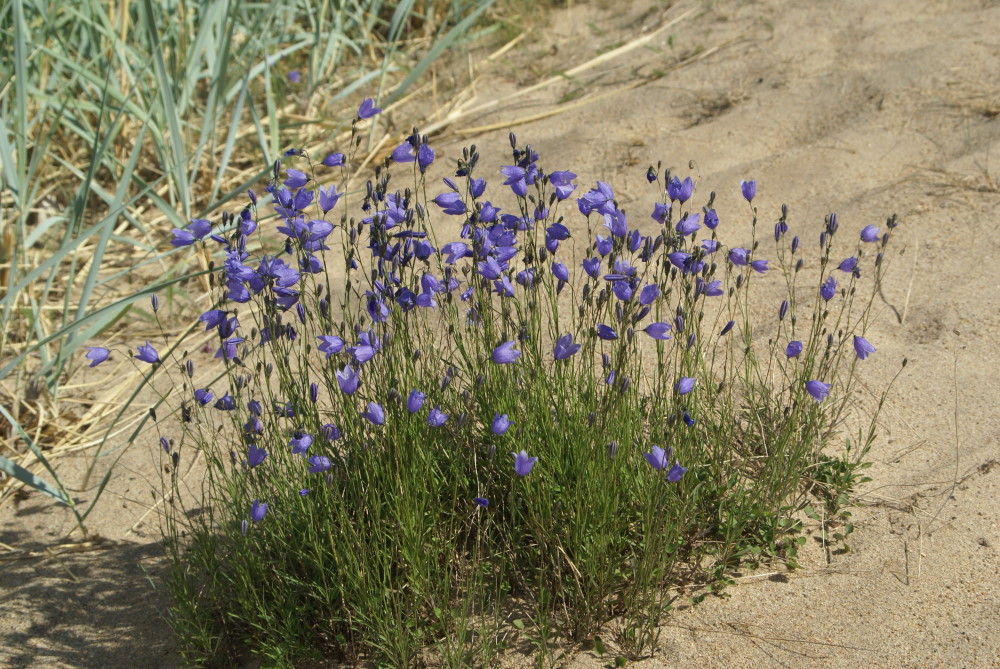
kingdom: Plantae
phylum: Tracheophyta
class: Magnoliopsida
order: Asterales
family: Campanulaceae
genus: Campanula
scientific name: Campanula rotundifolia
